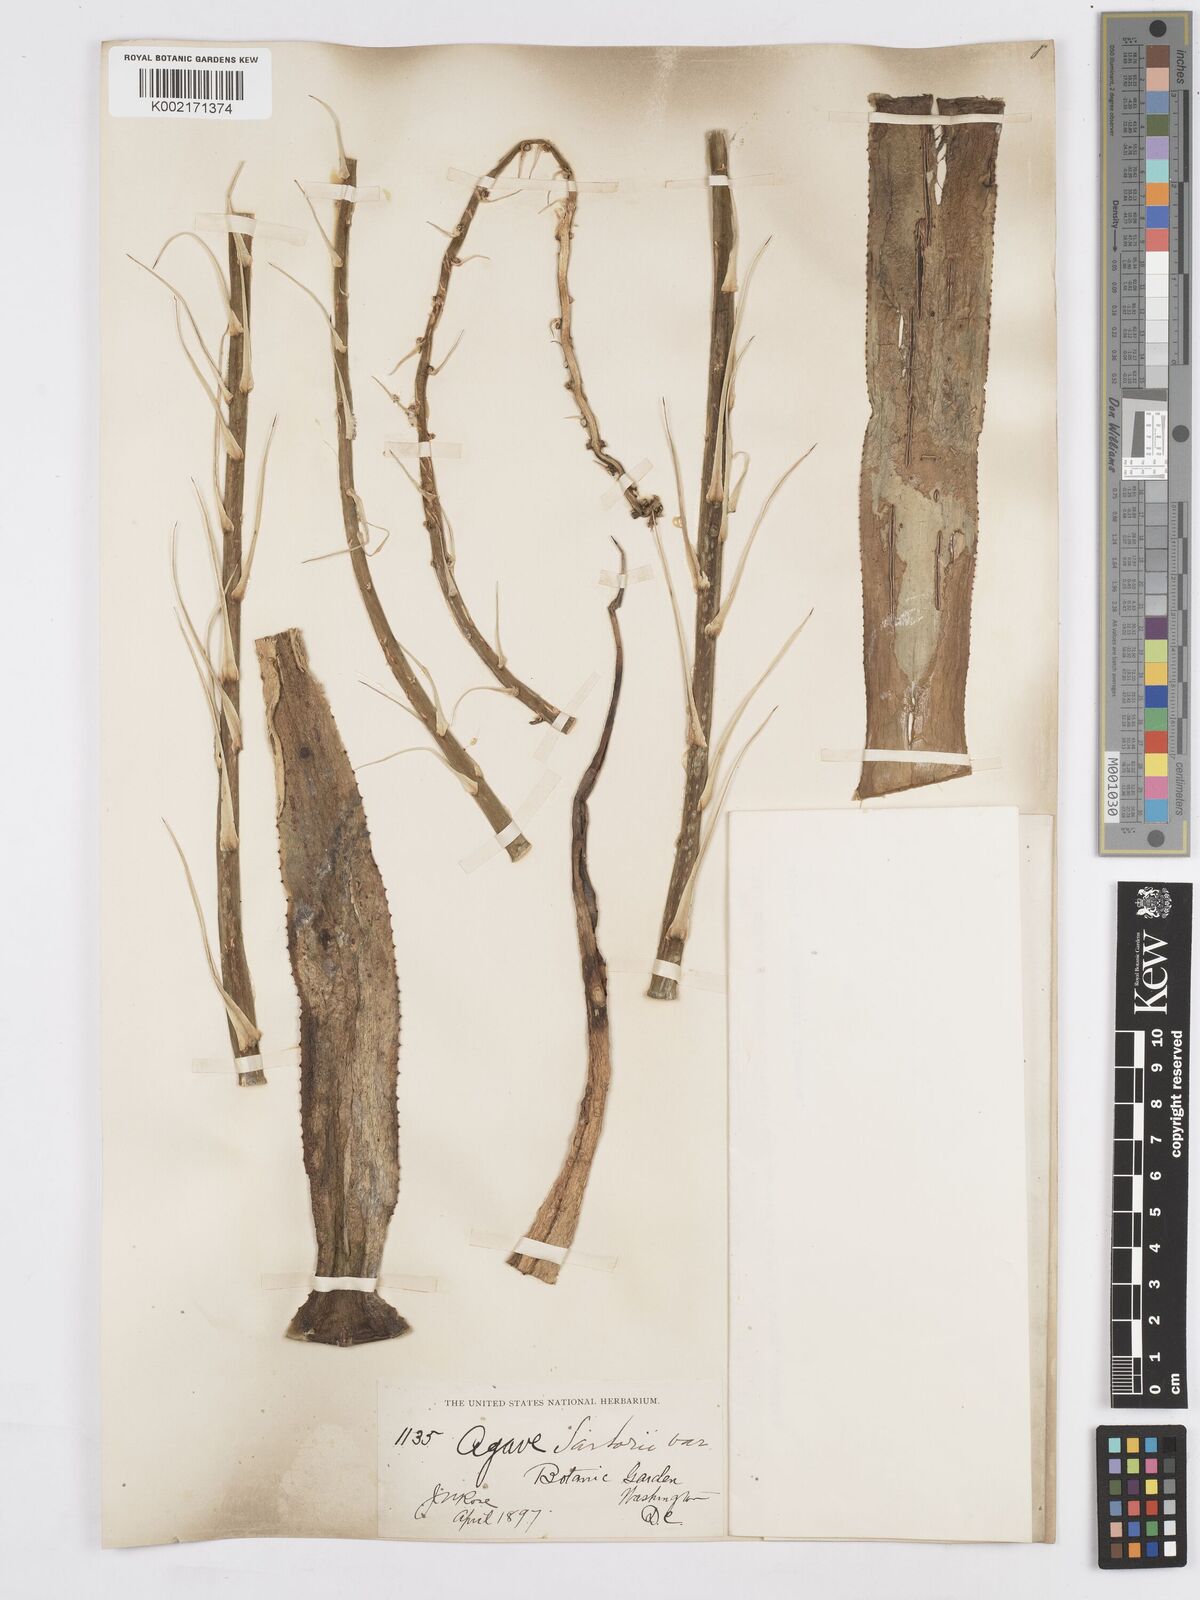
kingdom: Plantae
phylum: Tracheophyta
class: Liliopsida
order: Asparagales
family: Asparagaceae
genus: Agave
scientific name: Agave pendula
